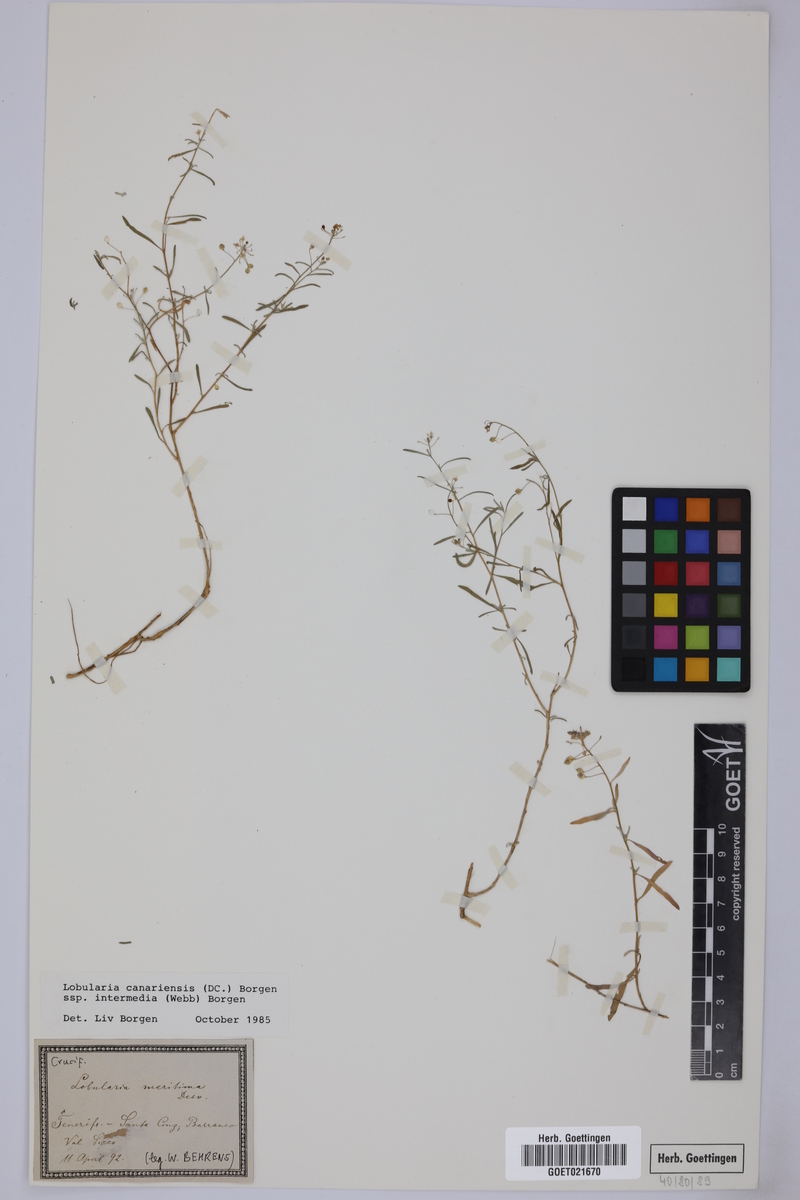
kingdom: Plantae
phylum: Tracheophyta
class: Magnoliopsida
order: Brassicales
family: Brassicaceae
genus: Lobularia
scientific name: Lobularia canariensis
